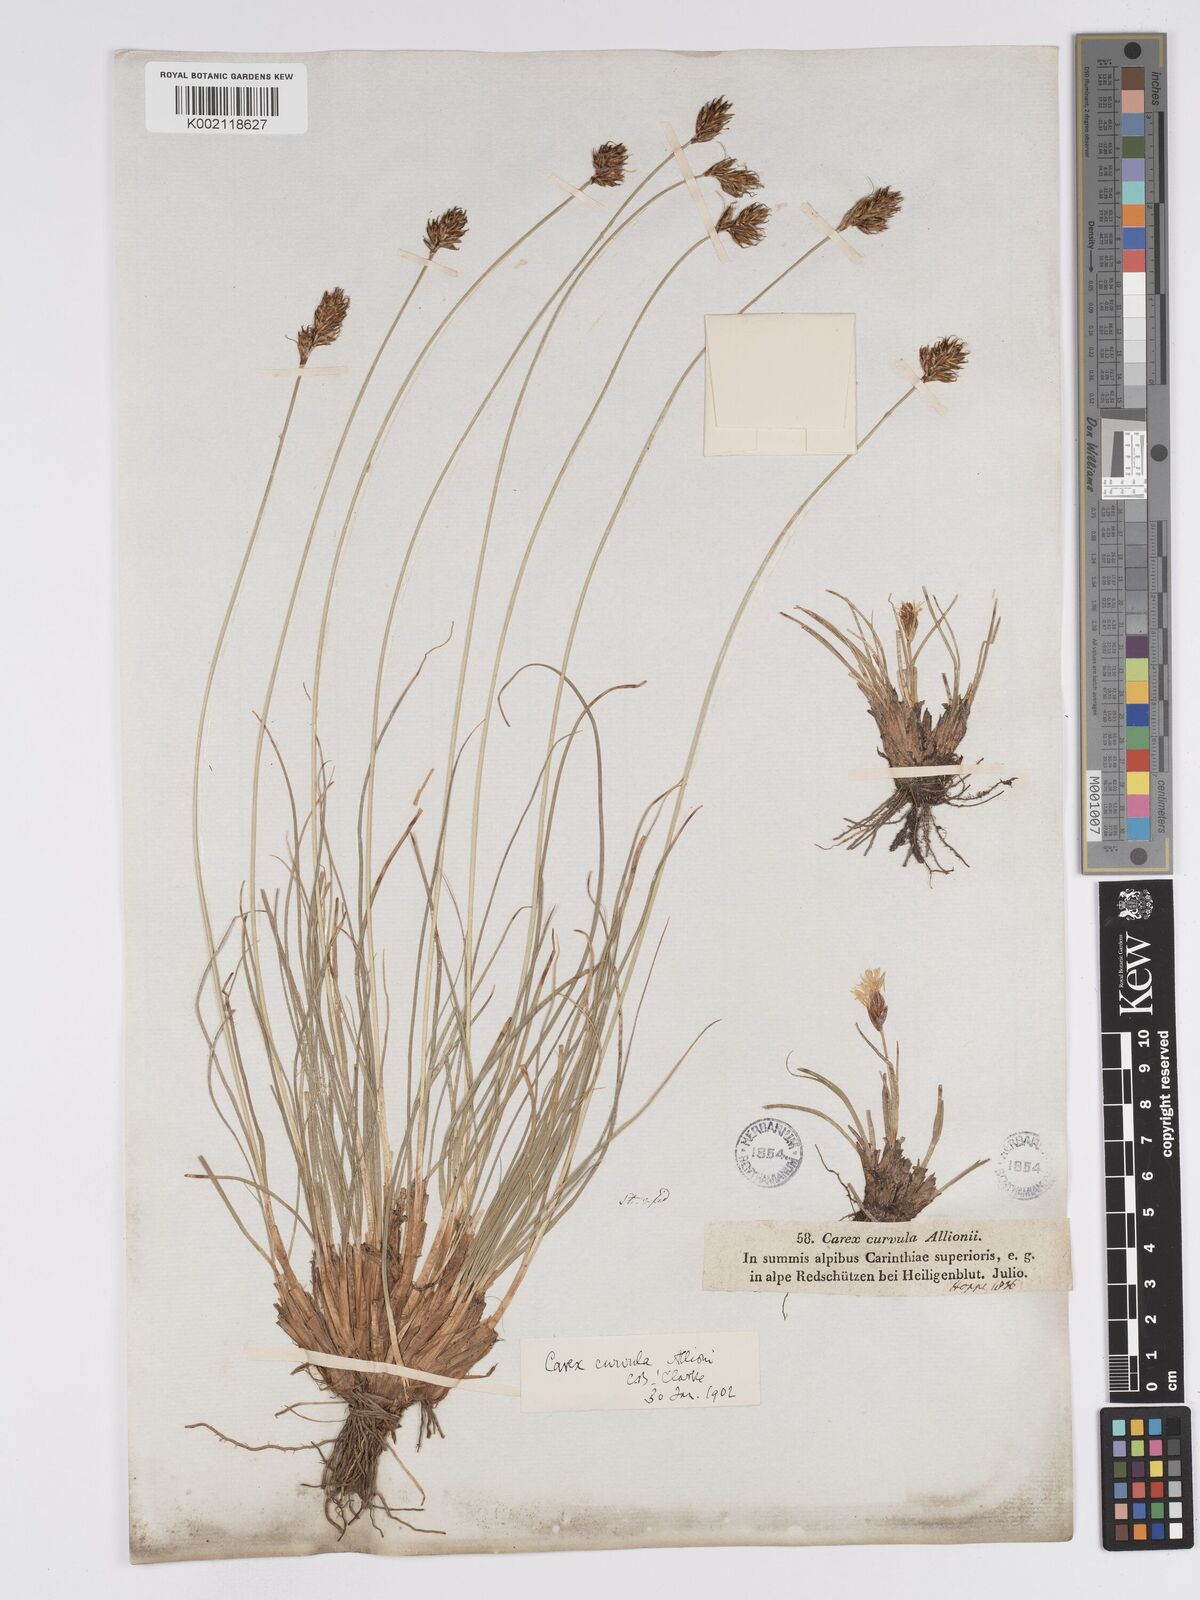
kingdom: Plantae
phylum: Tracheophyta
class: Liliopsida
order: Poales
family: Cyperaceae
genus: Carex
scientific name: Carex curvula
